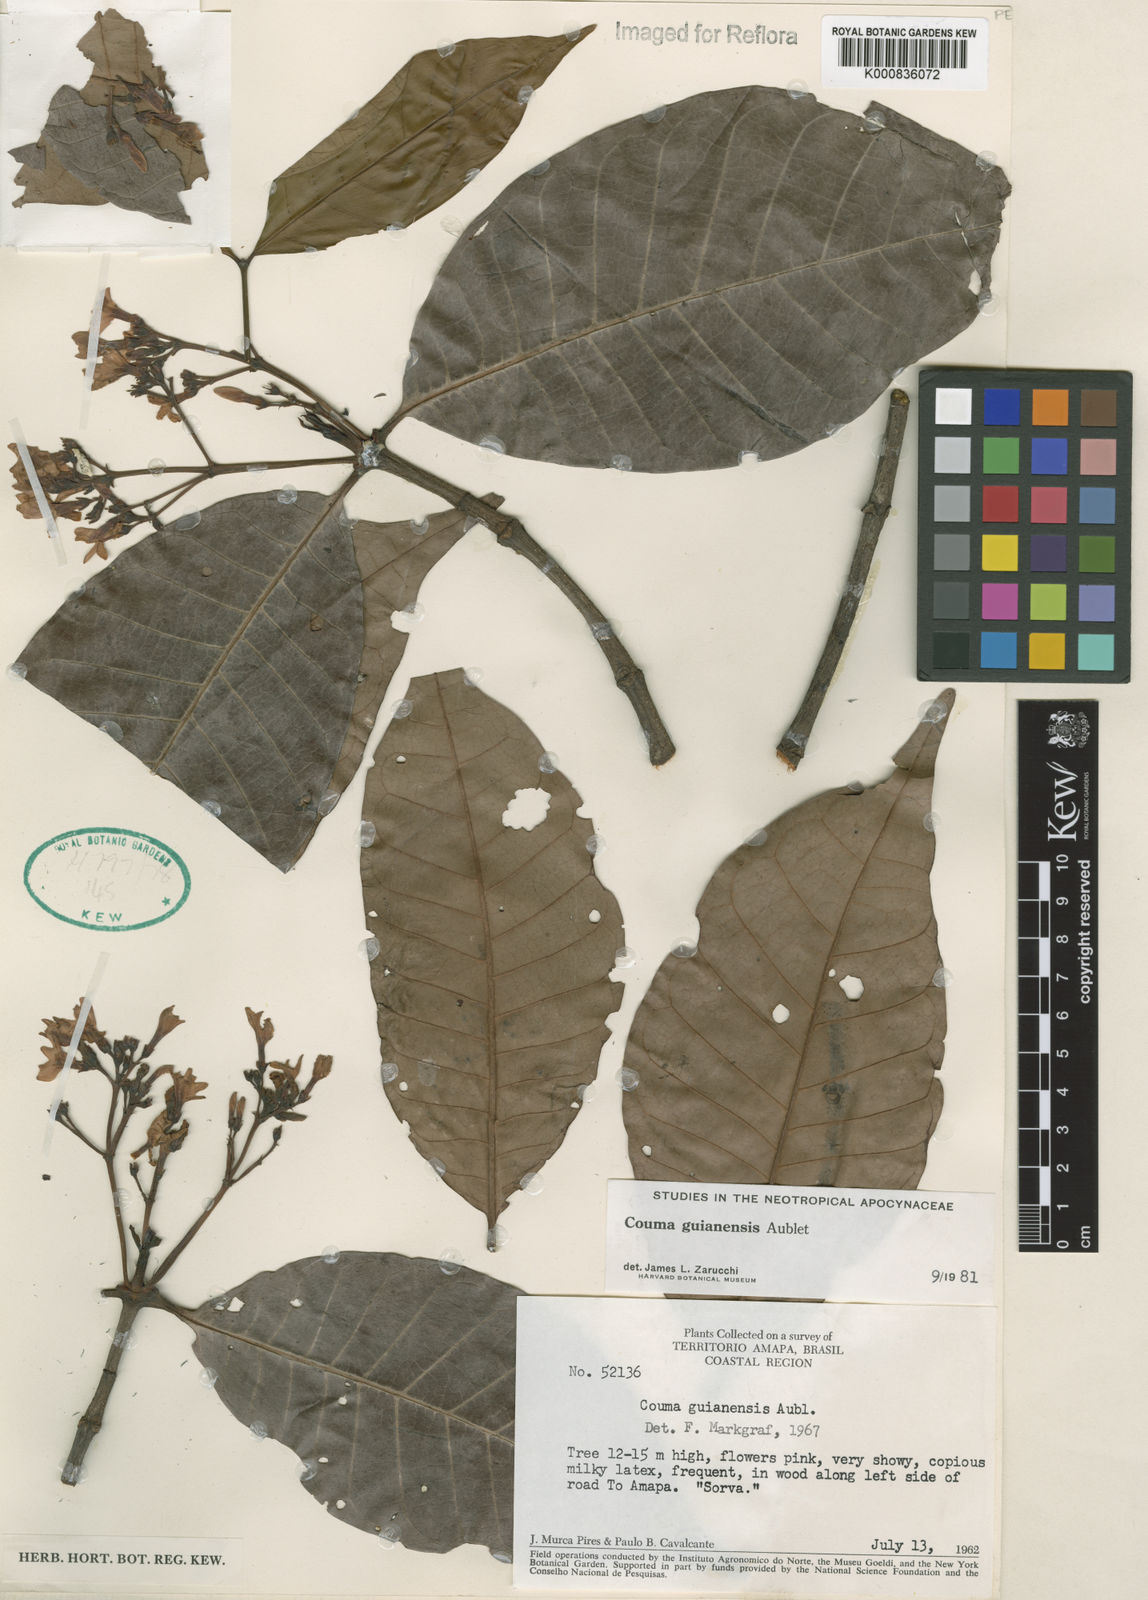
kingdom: Plantae
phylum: Tracheophyta
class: Magnoliopsida
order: Gentianales
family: Apocynaceae
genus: Couma
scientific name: Couma guianensis
